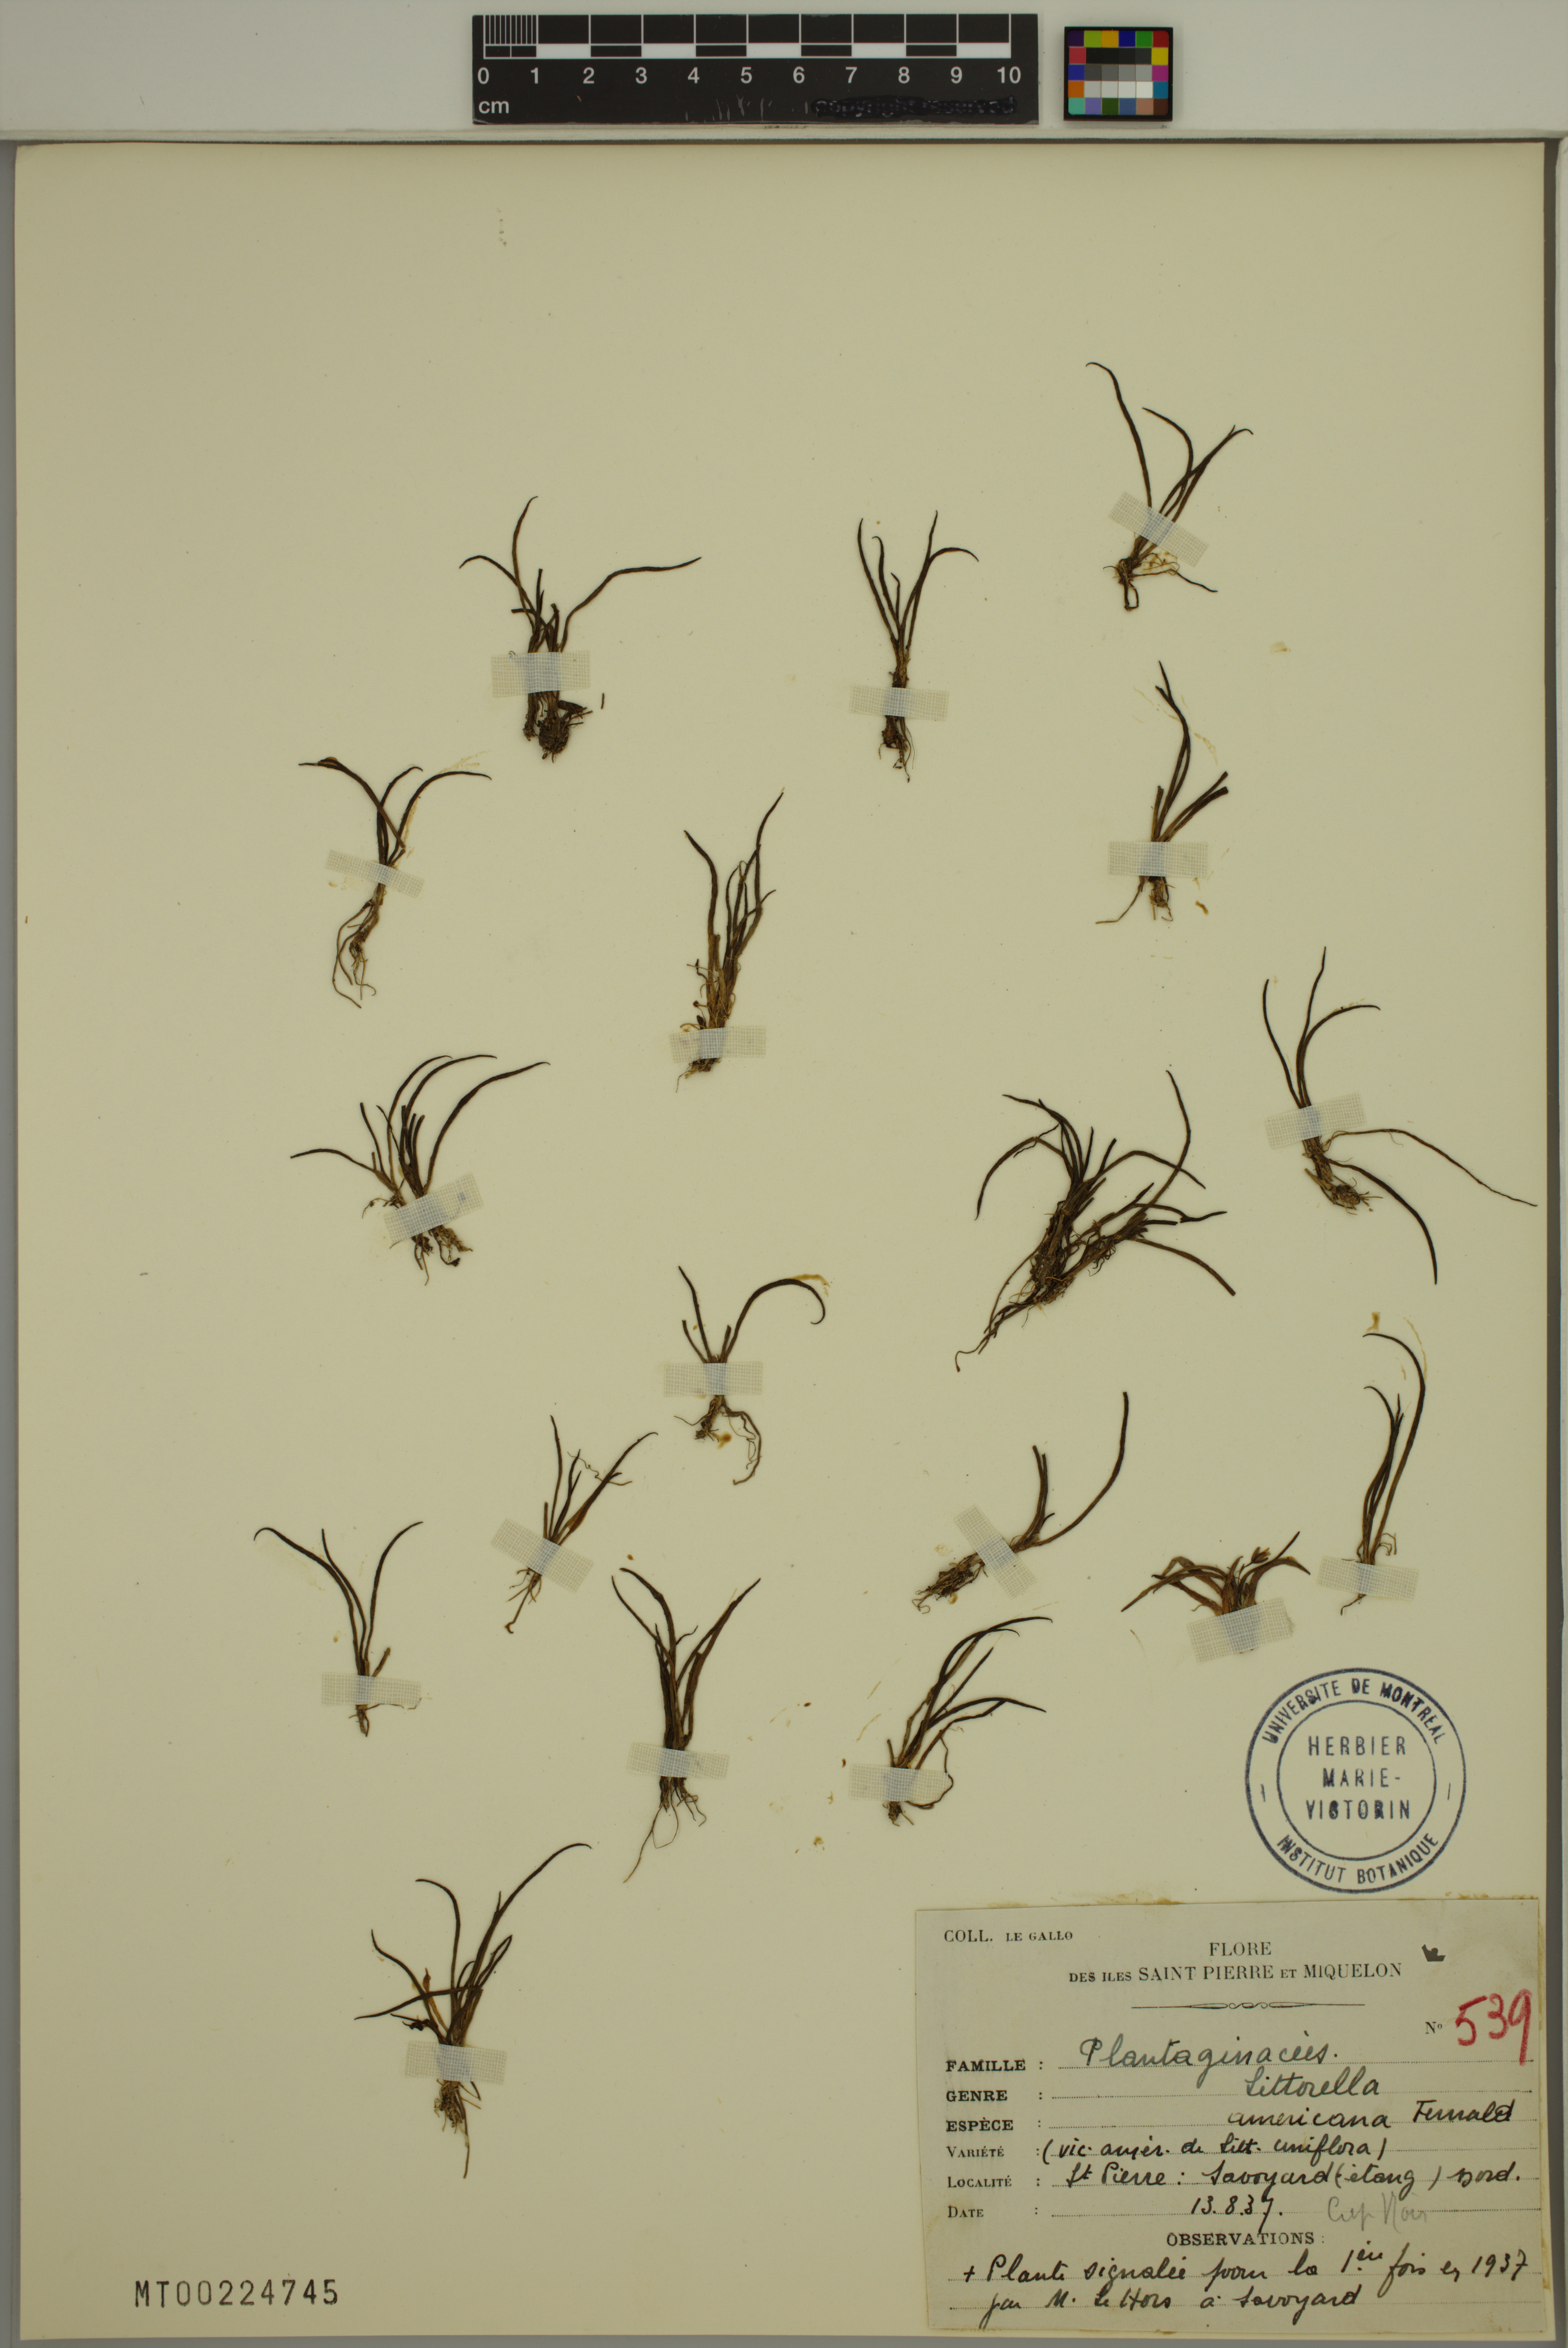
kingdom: Plantae
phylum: Tracheophyta
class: Magnoliopsida
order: Lamiales
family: Plantaginaceae
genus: Littorella
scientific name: Littorella americana
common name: American littorella
